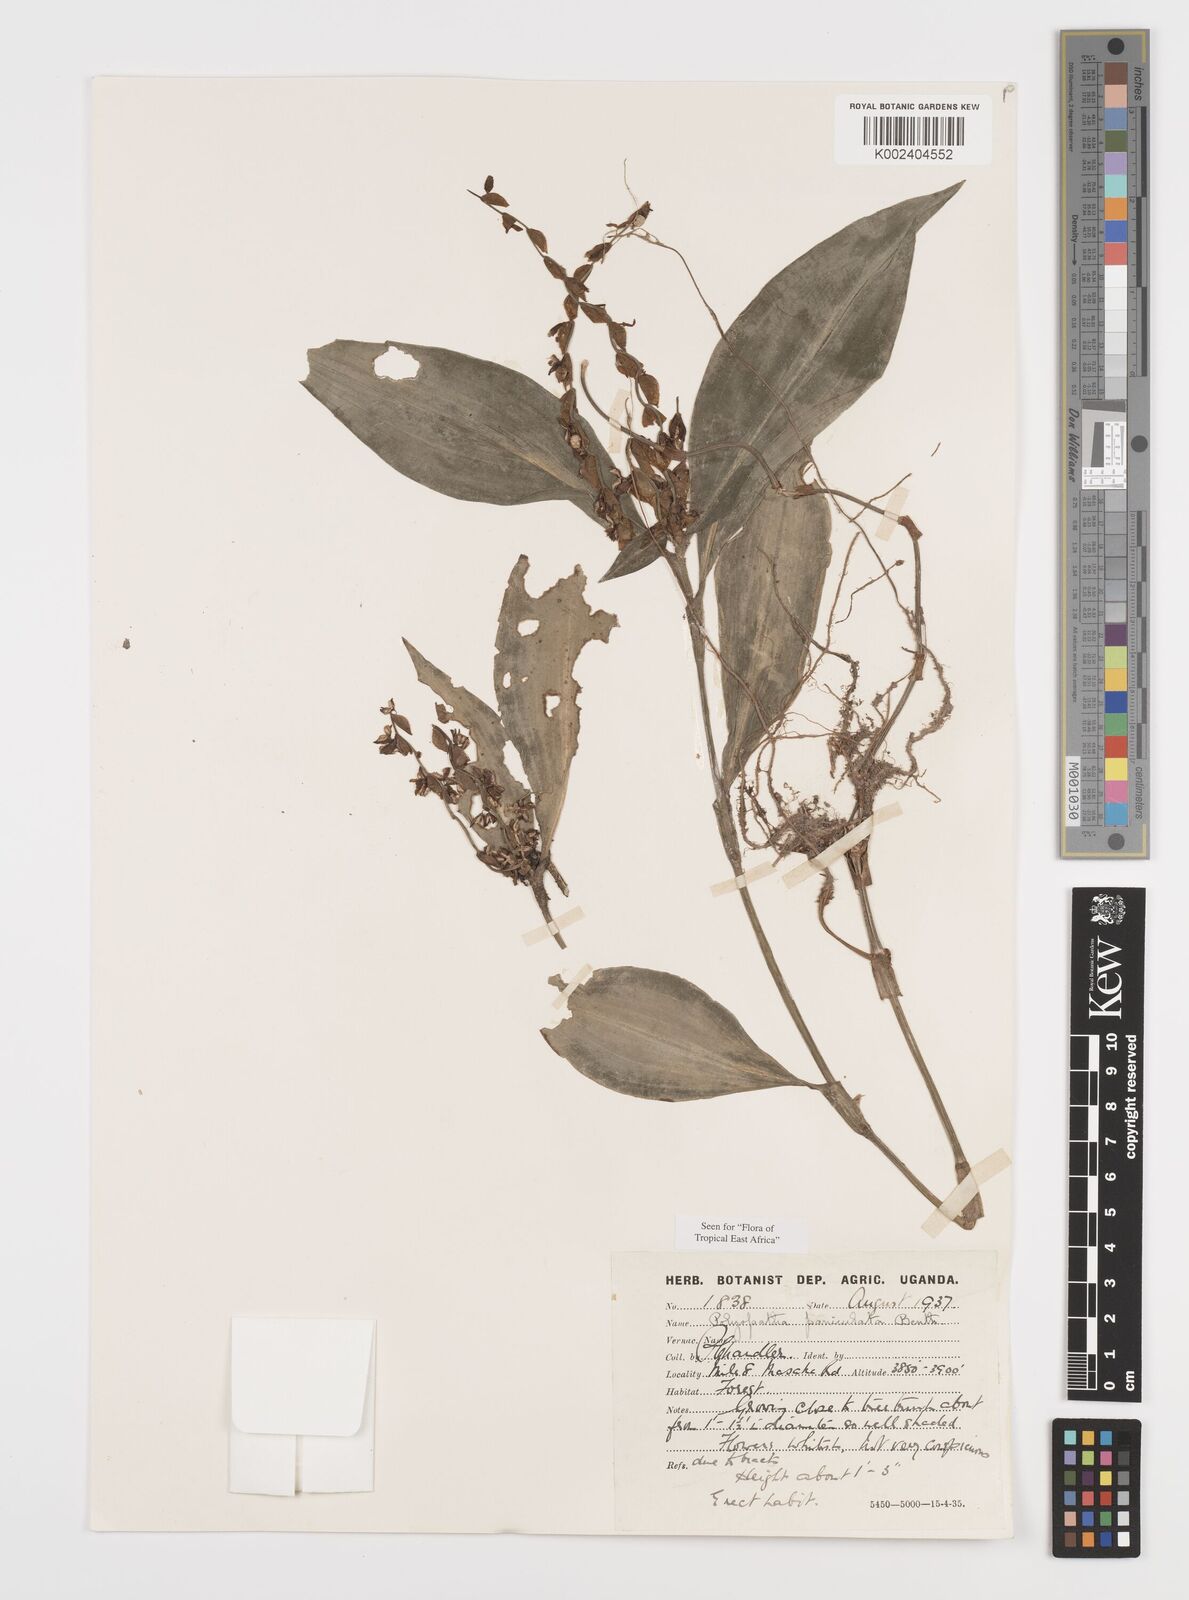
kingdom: Plantae
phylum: Tracheophyta
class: Liliopsida
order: Commelinales
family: Commelinaceae
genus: Polyspatha
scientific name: Polyspatha paniculata
